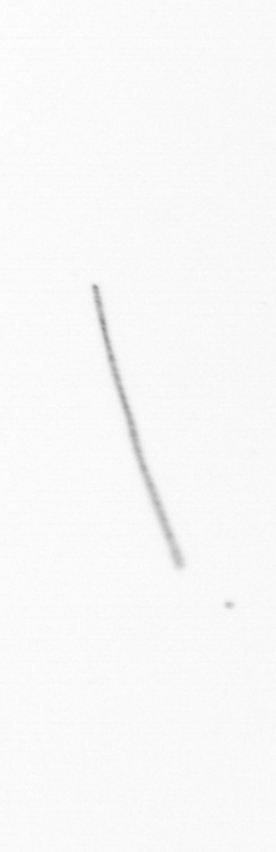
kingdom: Chromista
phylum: Ochrophyta
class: Bacillariophyceae
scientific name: Bacillariophyceae
